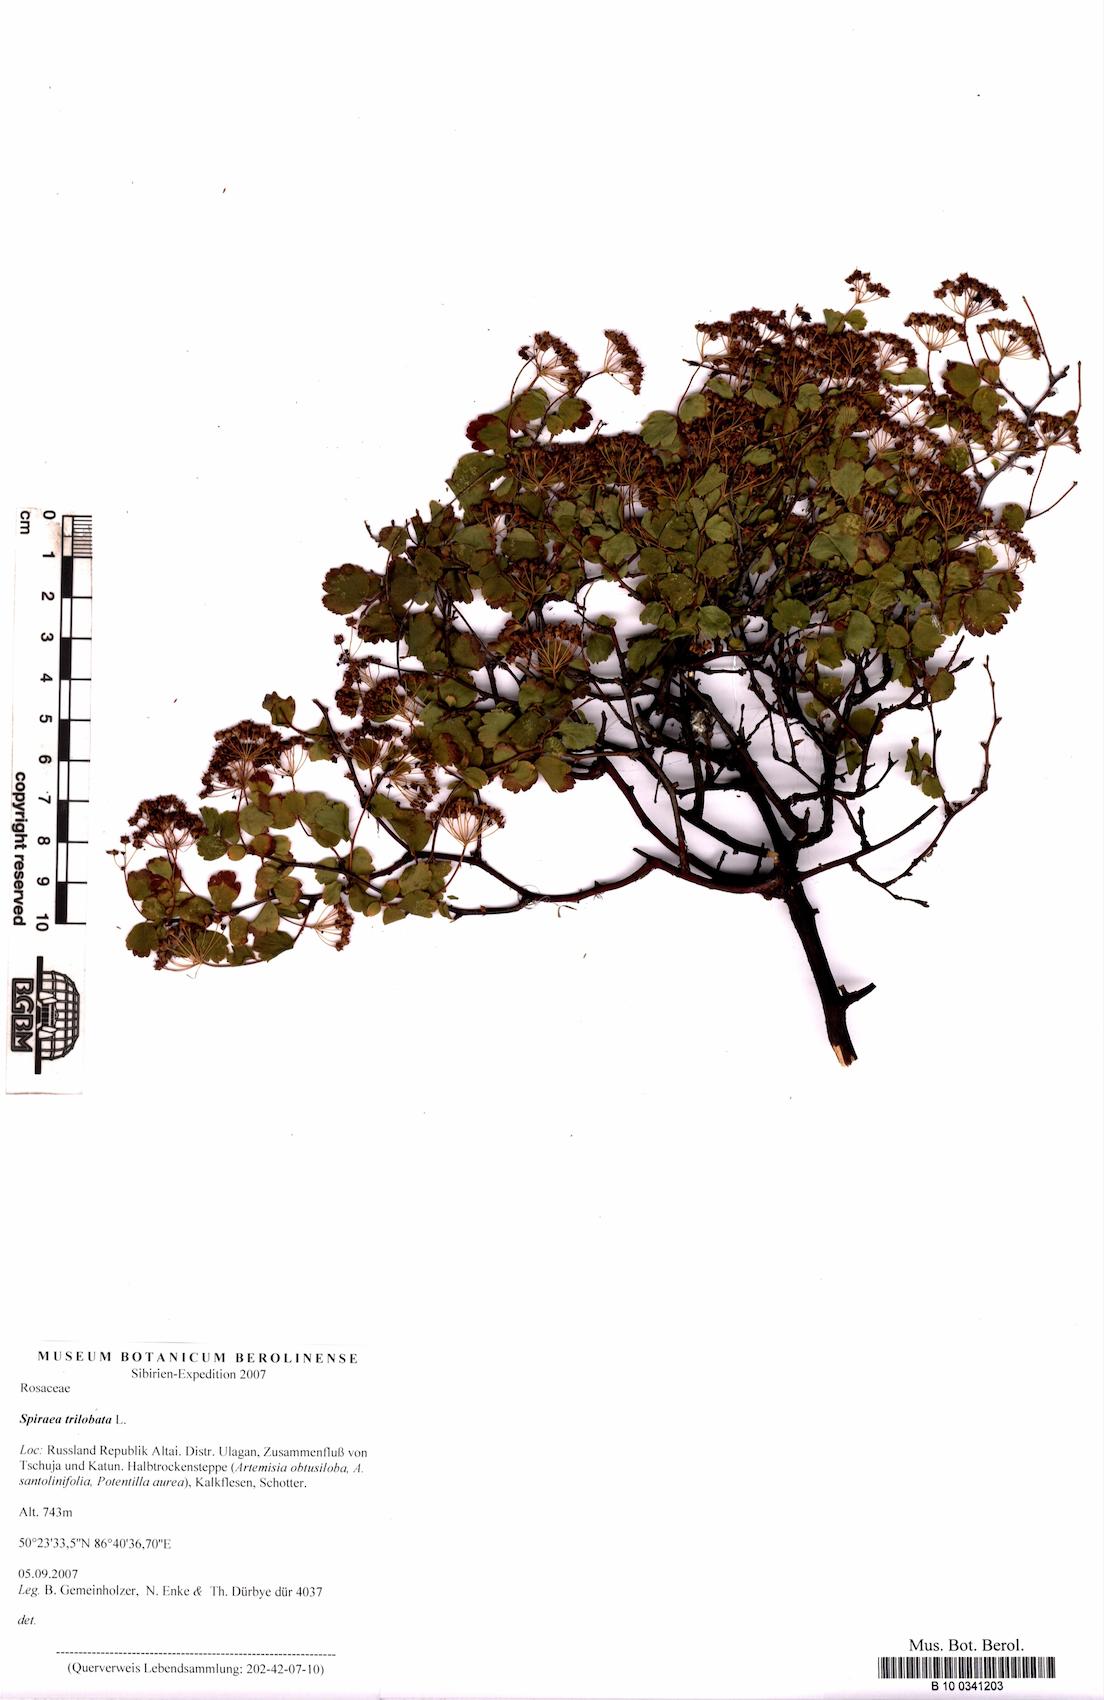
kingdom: Plantae
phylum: Tracheophyta
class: Magnoliopsida
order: Rosales
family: Rosaceae
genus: Spiraea
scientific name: Spiraea trilobata
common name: Asian meadowsweet
